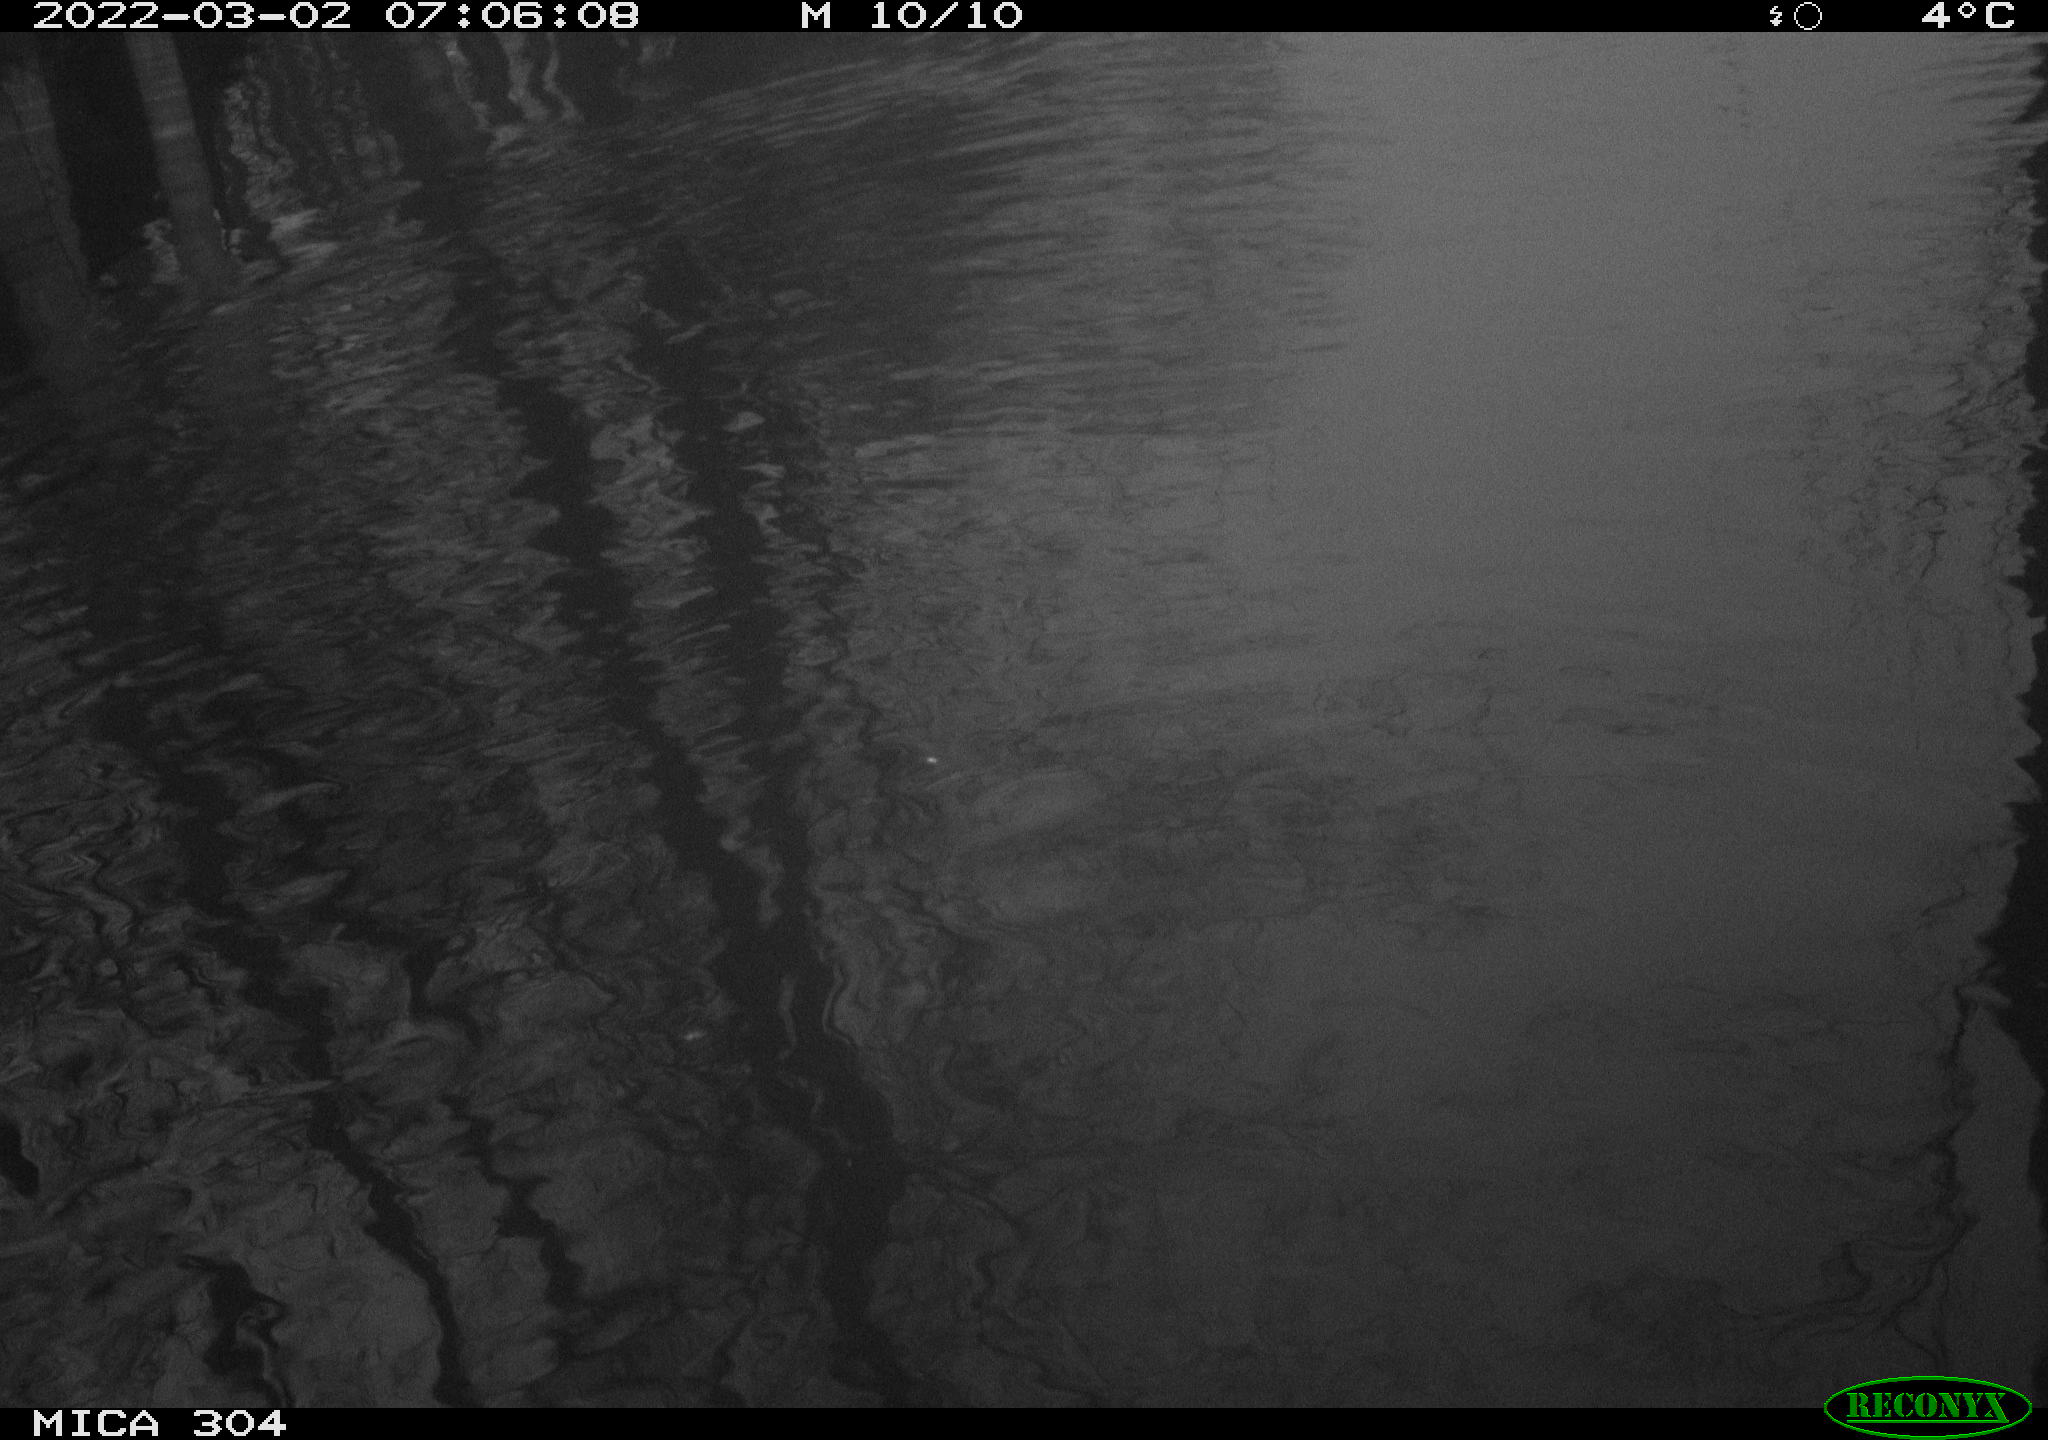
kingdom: Animalia
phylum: Chordata
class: Aves
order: Anseriformes
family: Anatidae
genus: Anas
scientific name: Anas platyrhynchos
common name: Mallard
